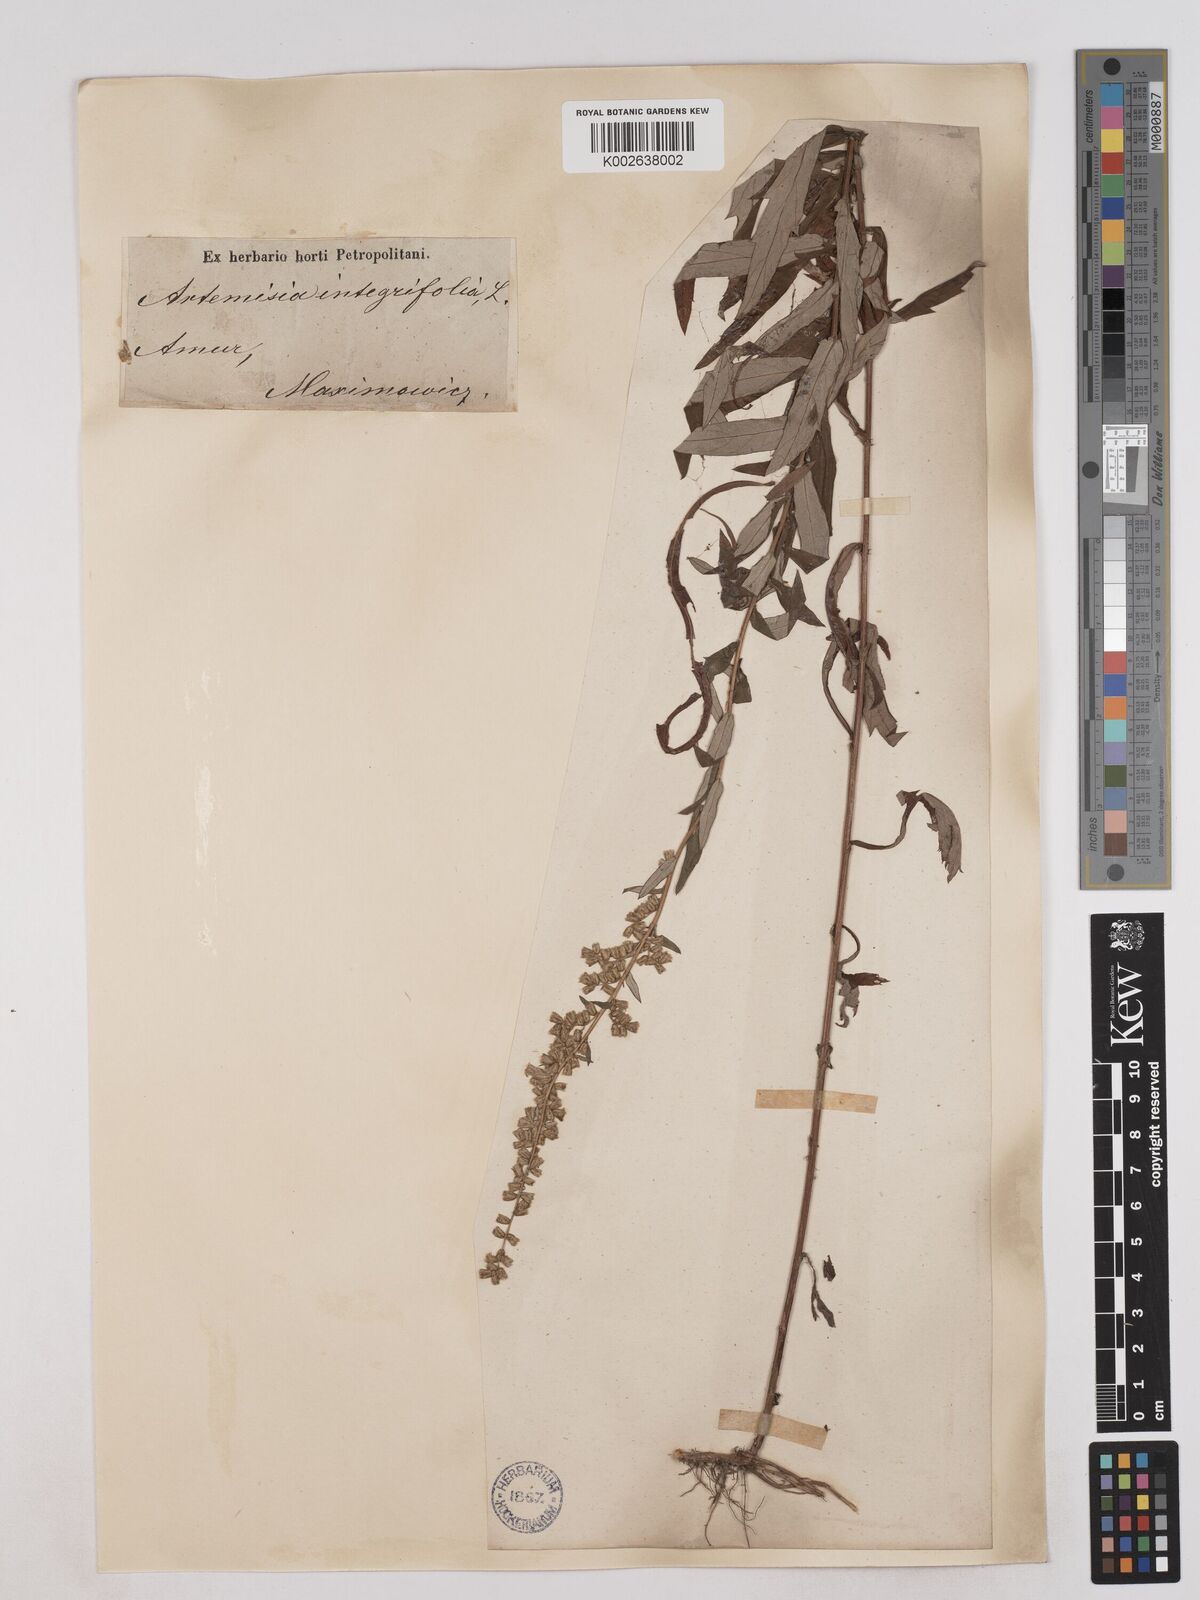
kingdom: Plantae
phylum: Tracheophyta
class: Magnoliopsida
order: Asterales
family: Asteraceae
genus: Artemisia
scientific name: Artemisia integrifolia
